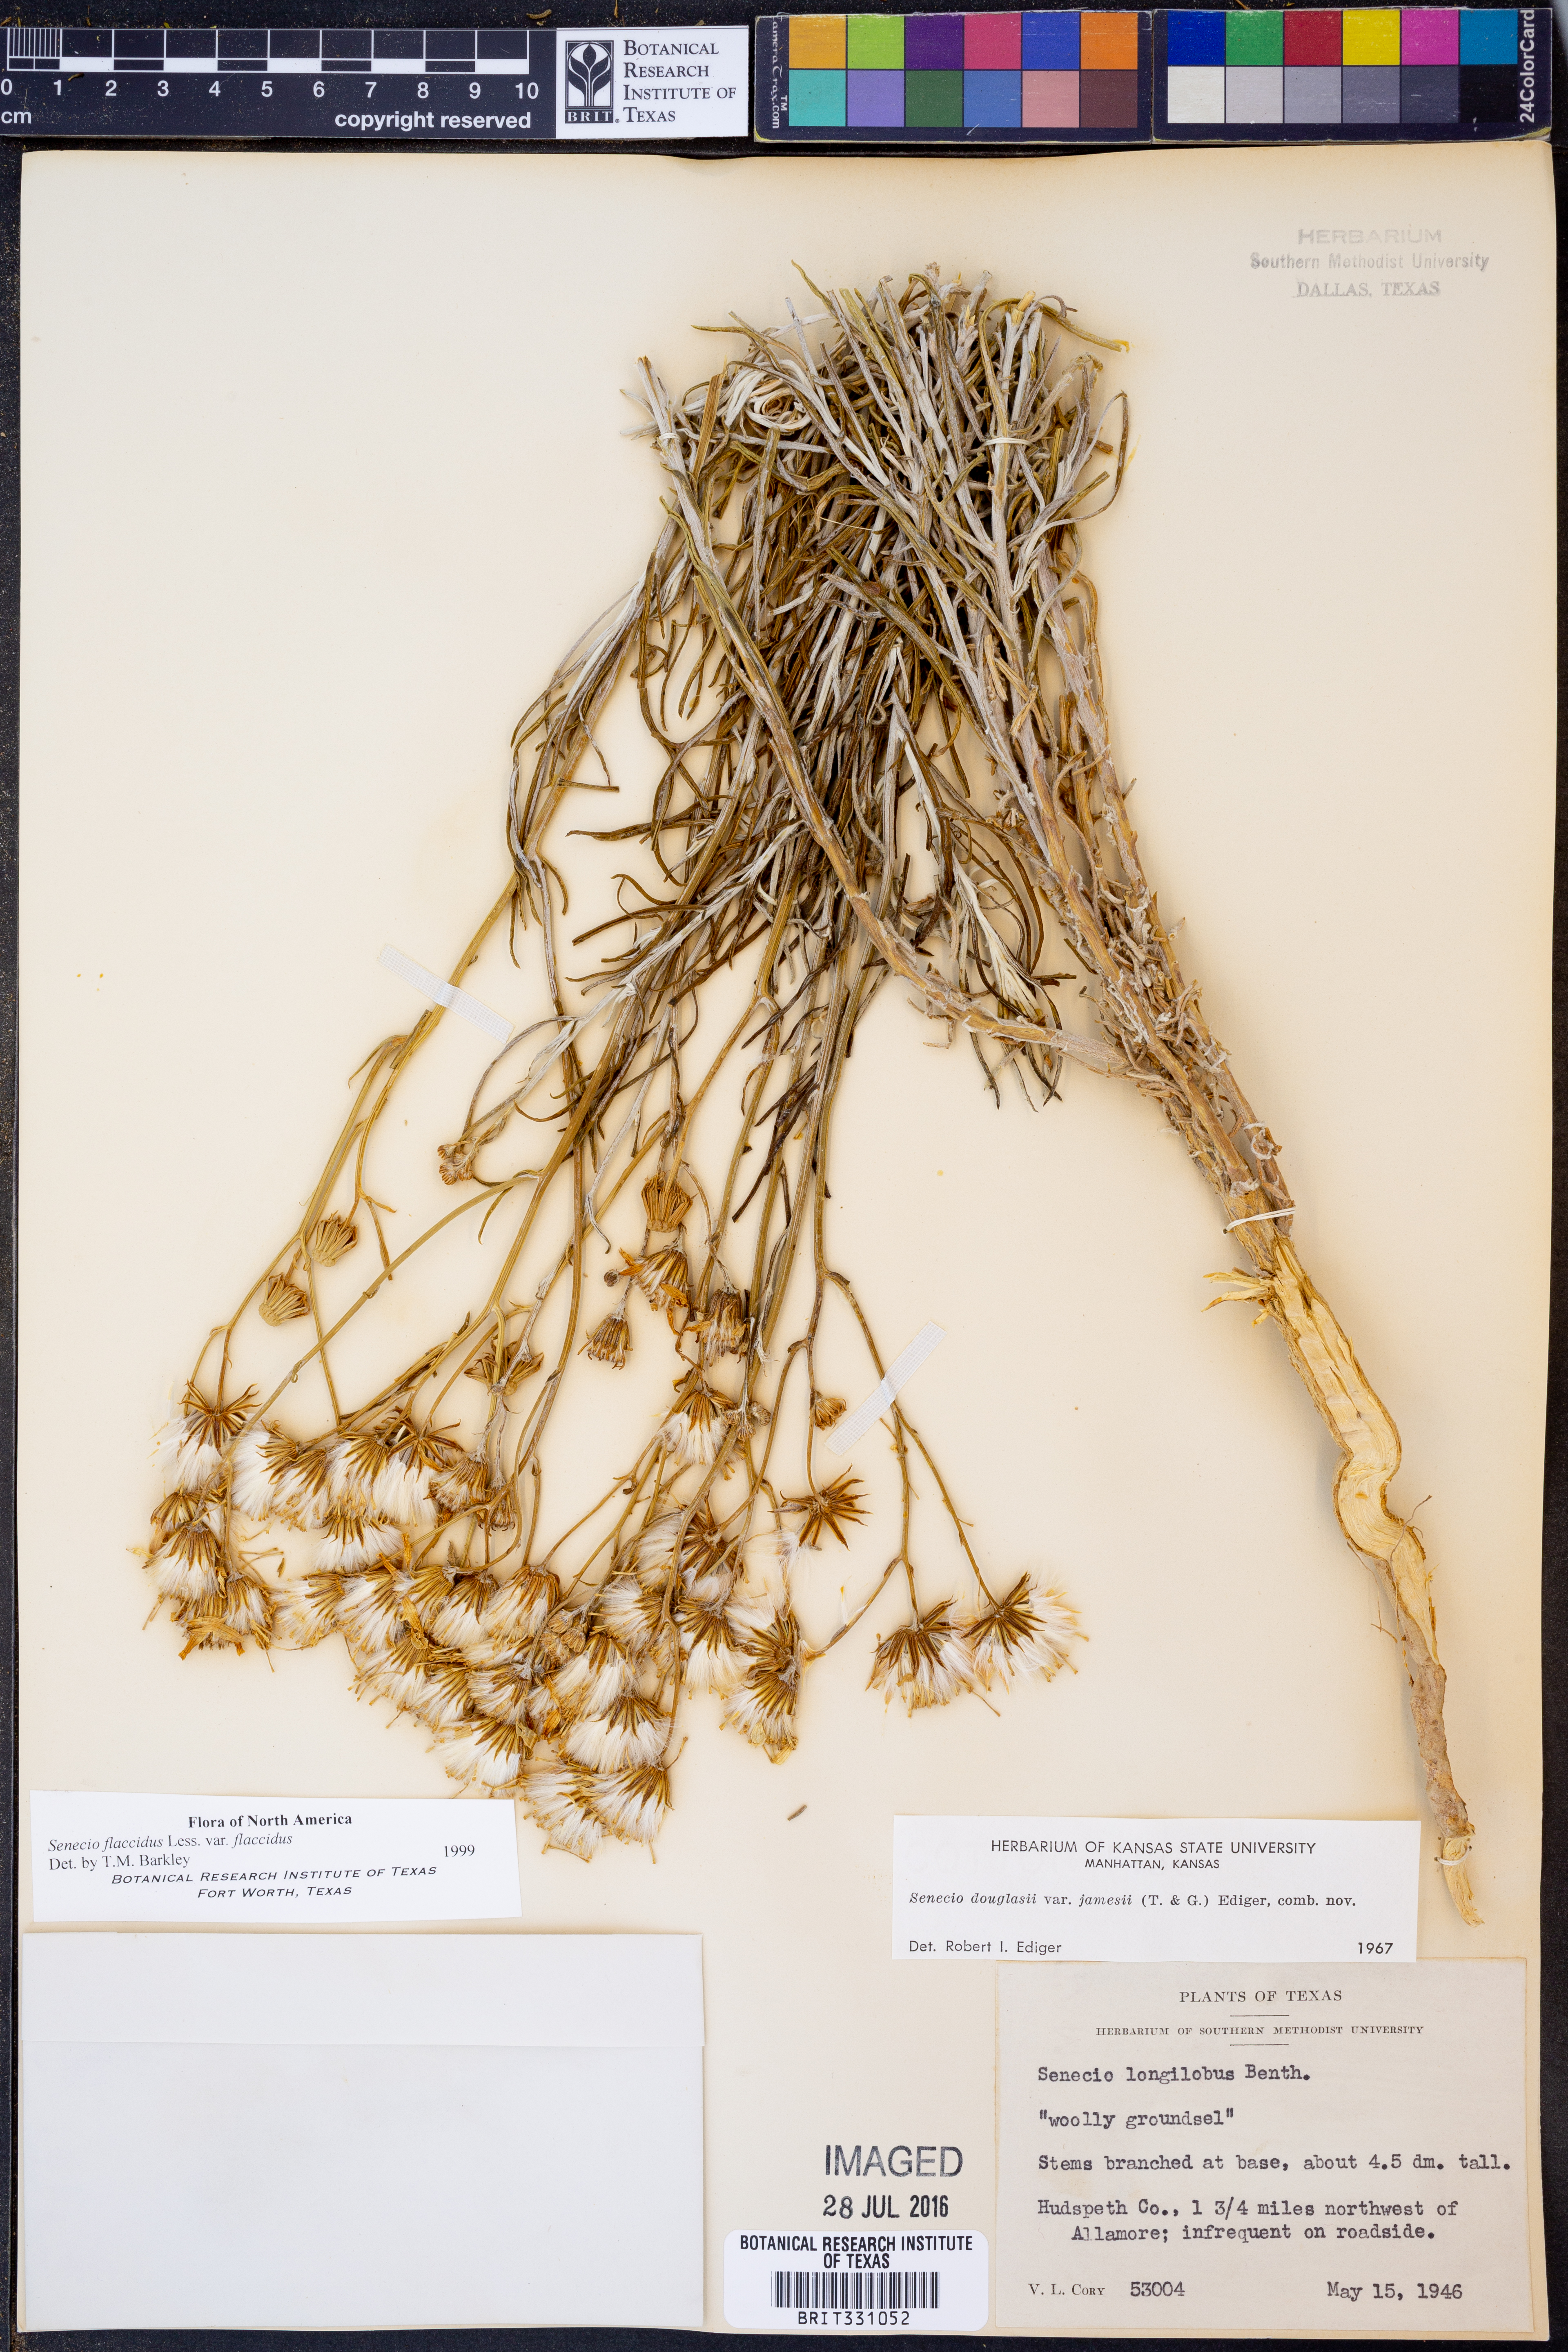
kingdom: Plantae
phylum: Tracheophyta
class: Magnoliopsida
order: Asterales
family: Asteraceae
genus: Senecio
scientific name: Senecio flaccidus
